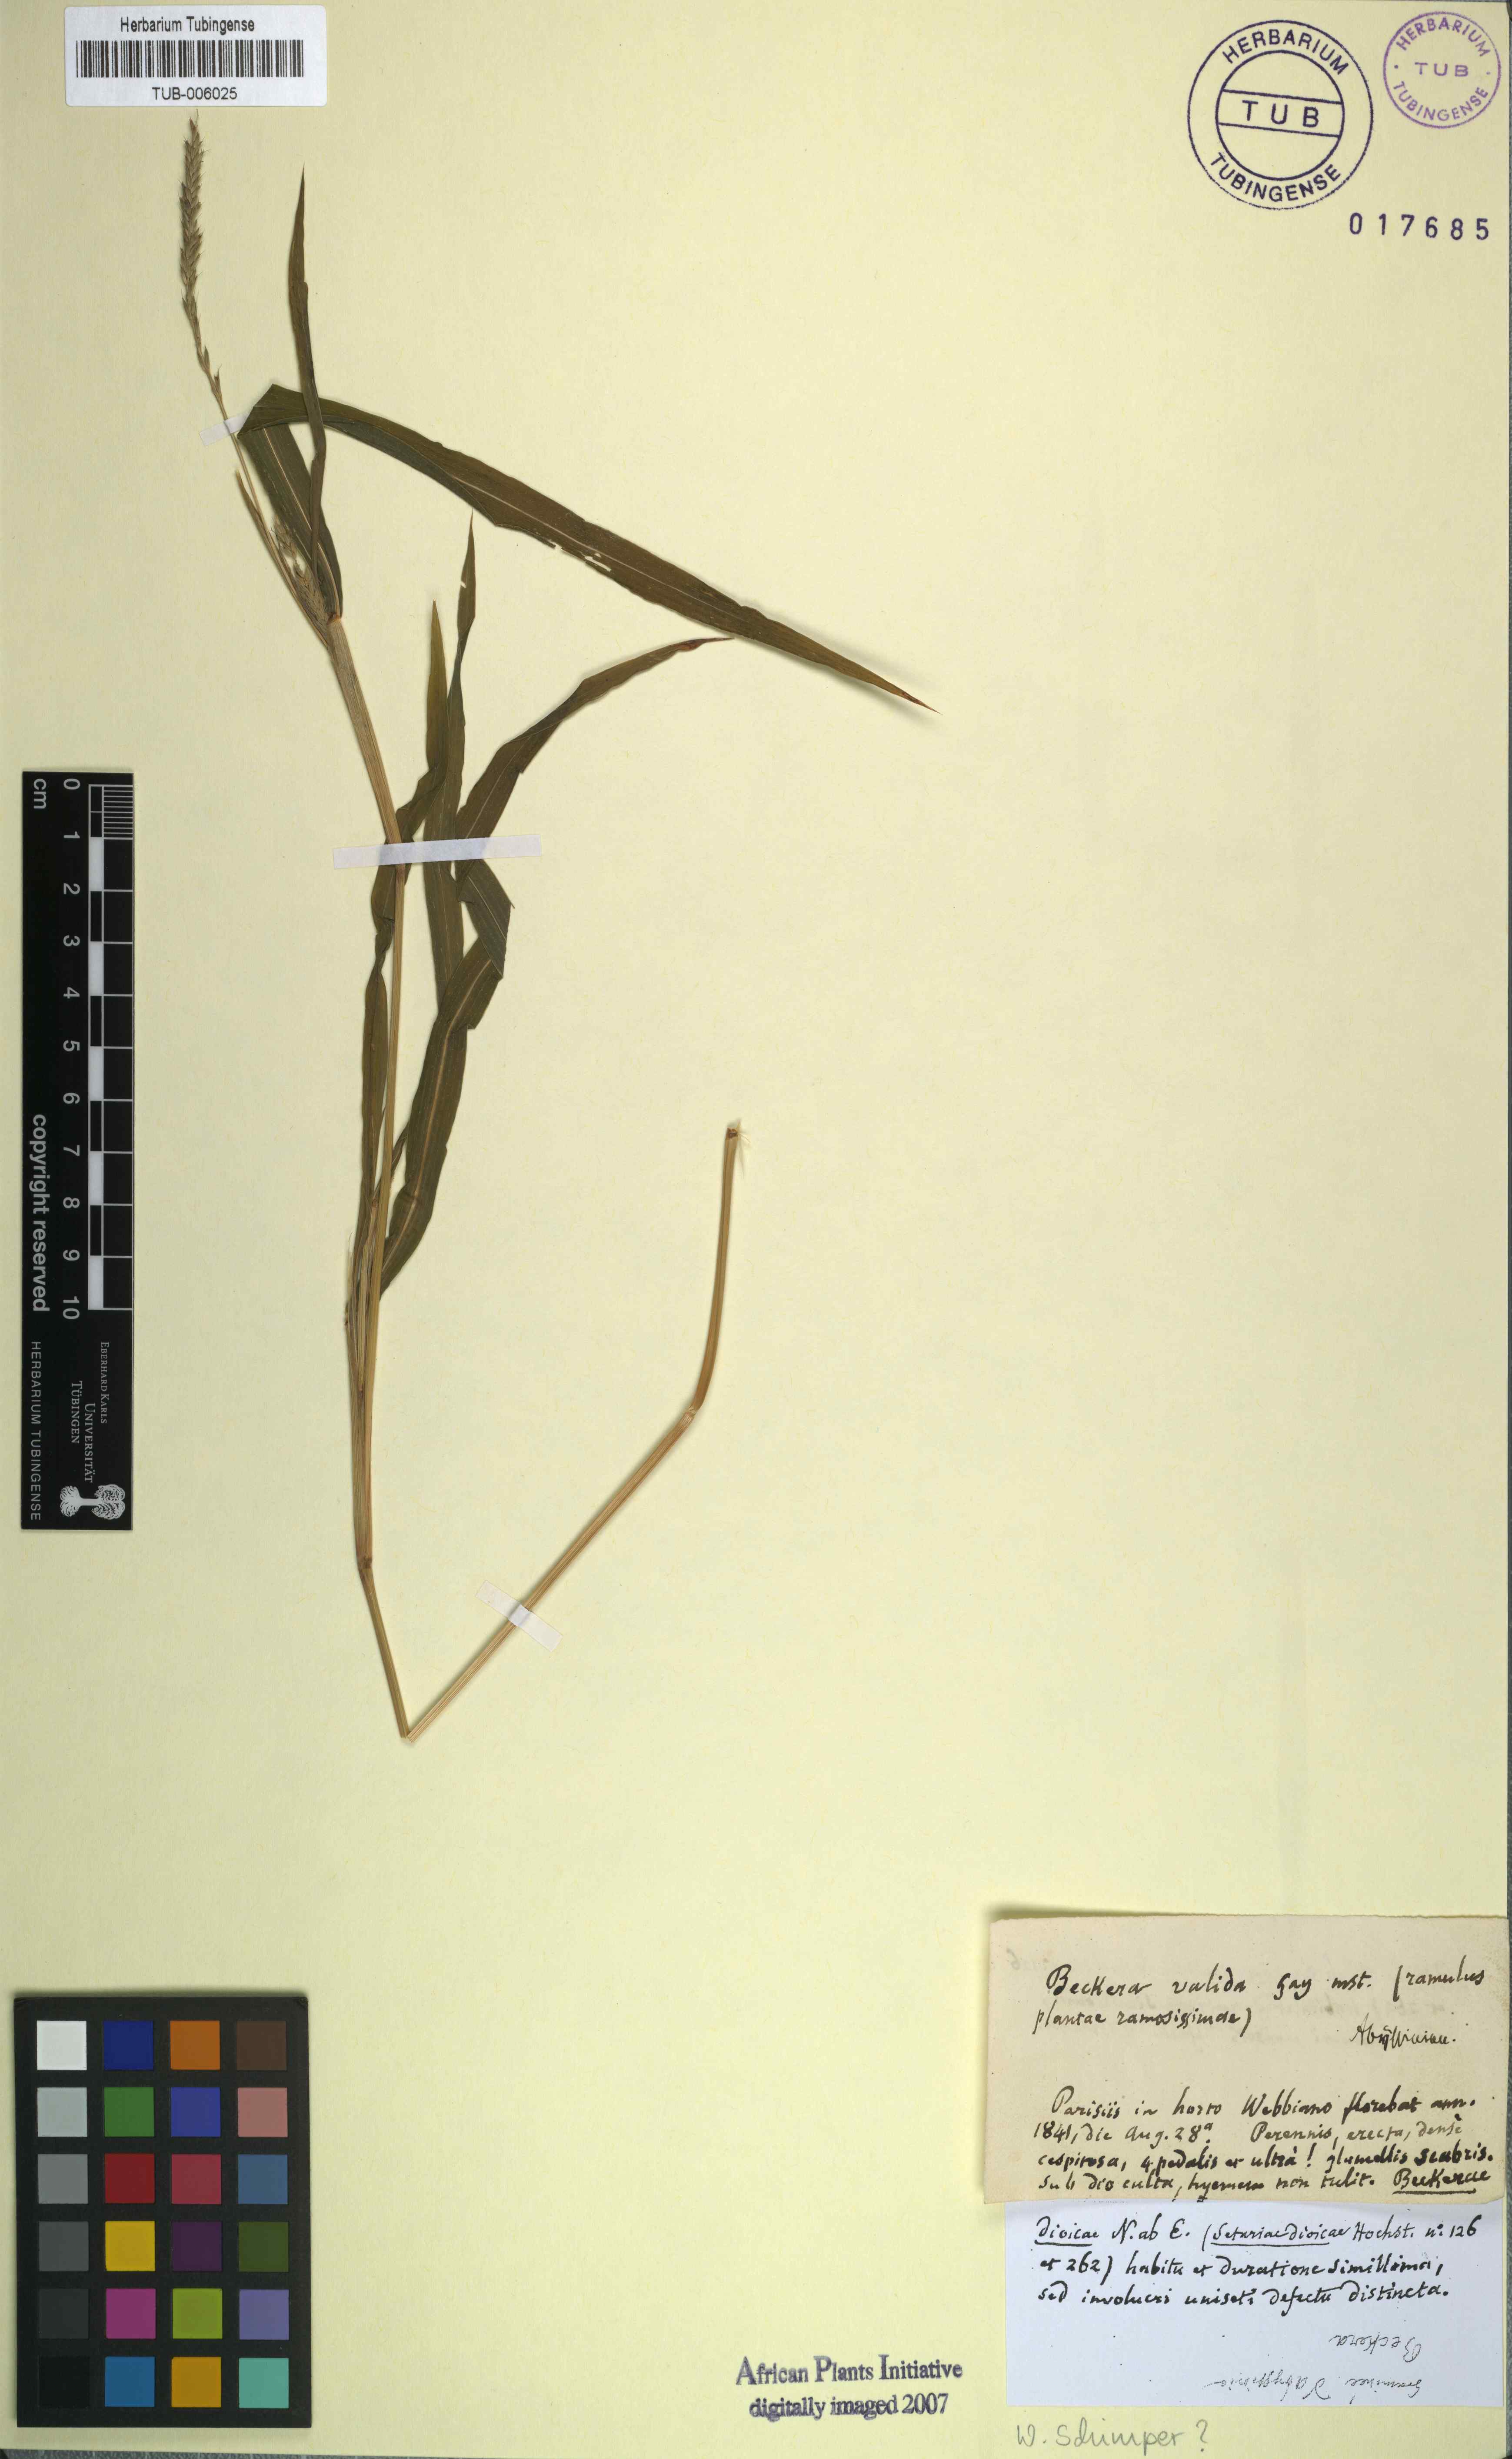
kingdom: Plantae
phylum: Tracheophyta
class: Liliopsida
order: Poales
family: Poaceae
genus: Snowdenia
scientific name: Snowdenia polystachya
